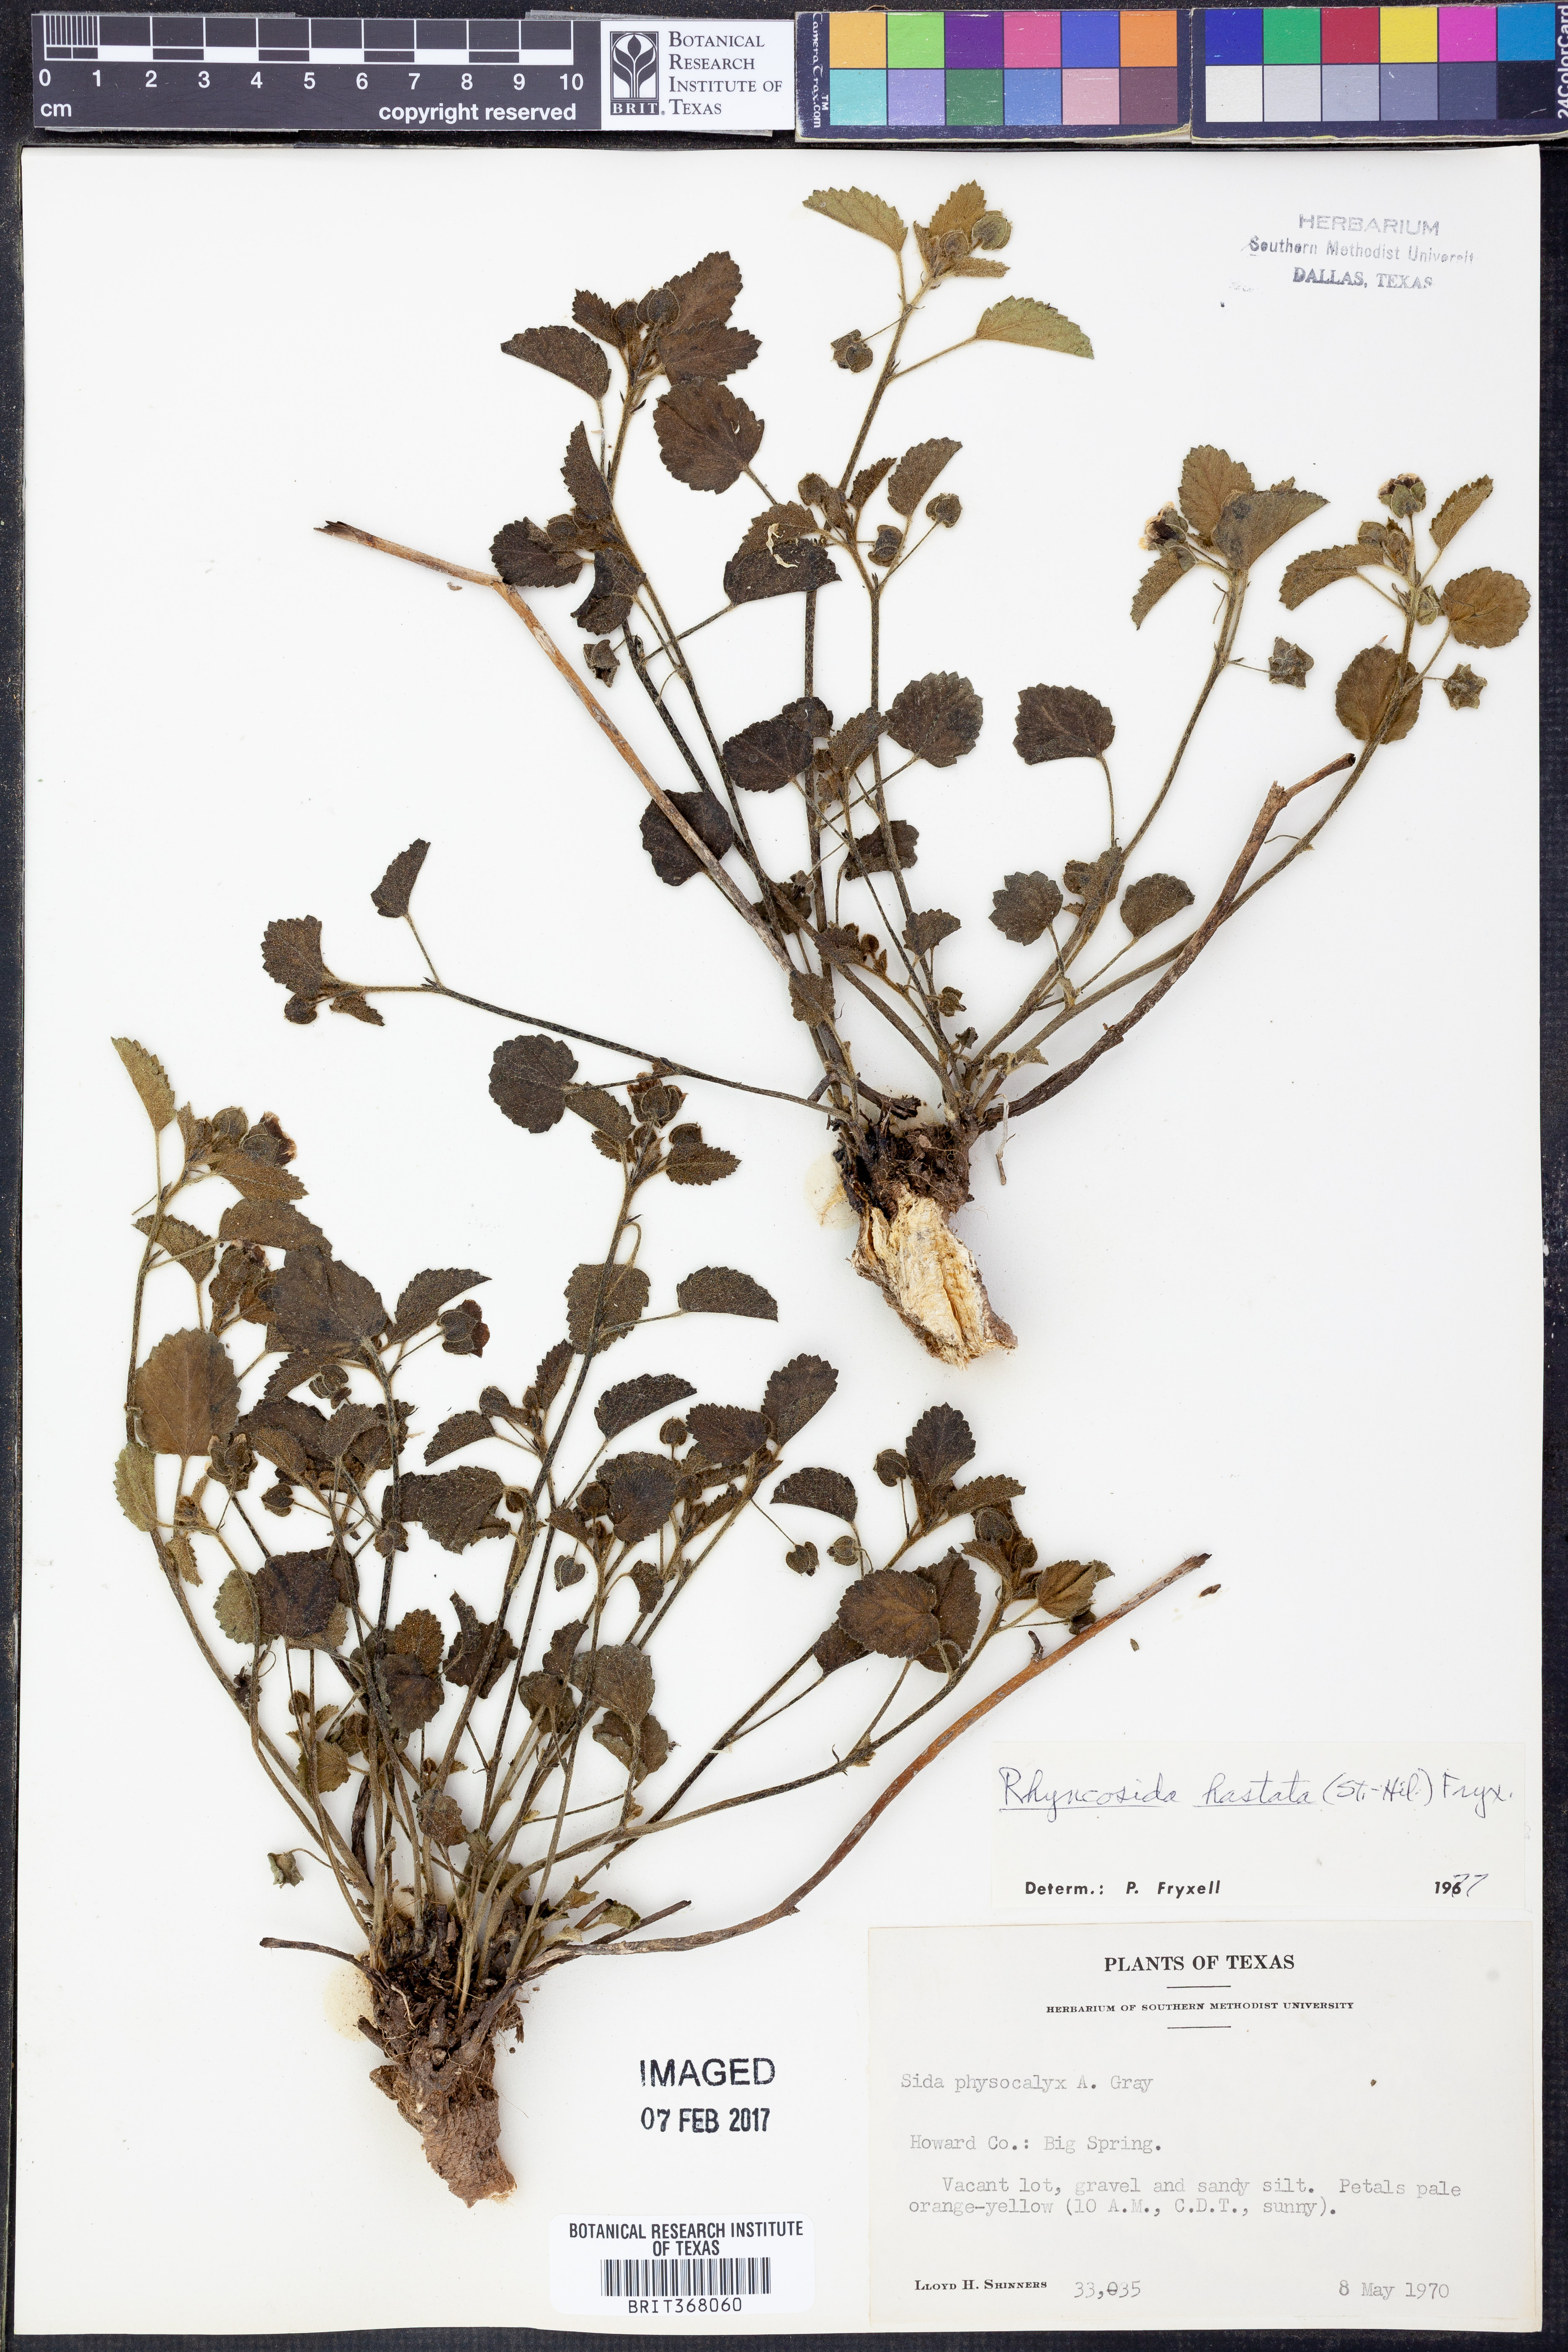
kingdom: Plantae
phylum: Tracheophyta
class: Magnoliopsida
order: Malvales
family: Malvaceae
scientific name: Malvaceae
